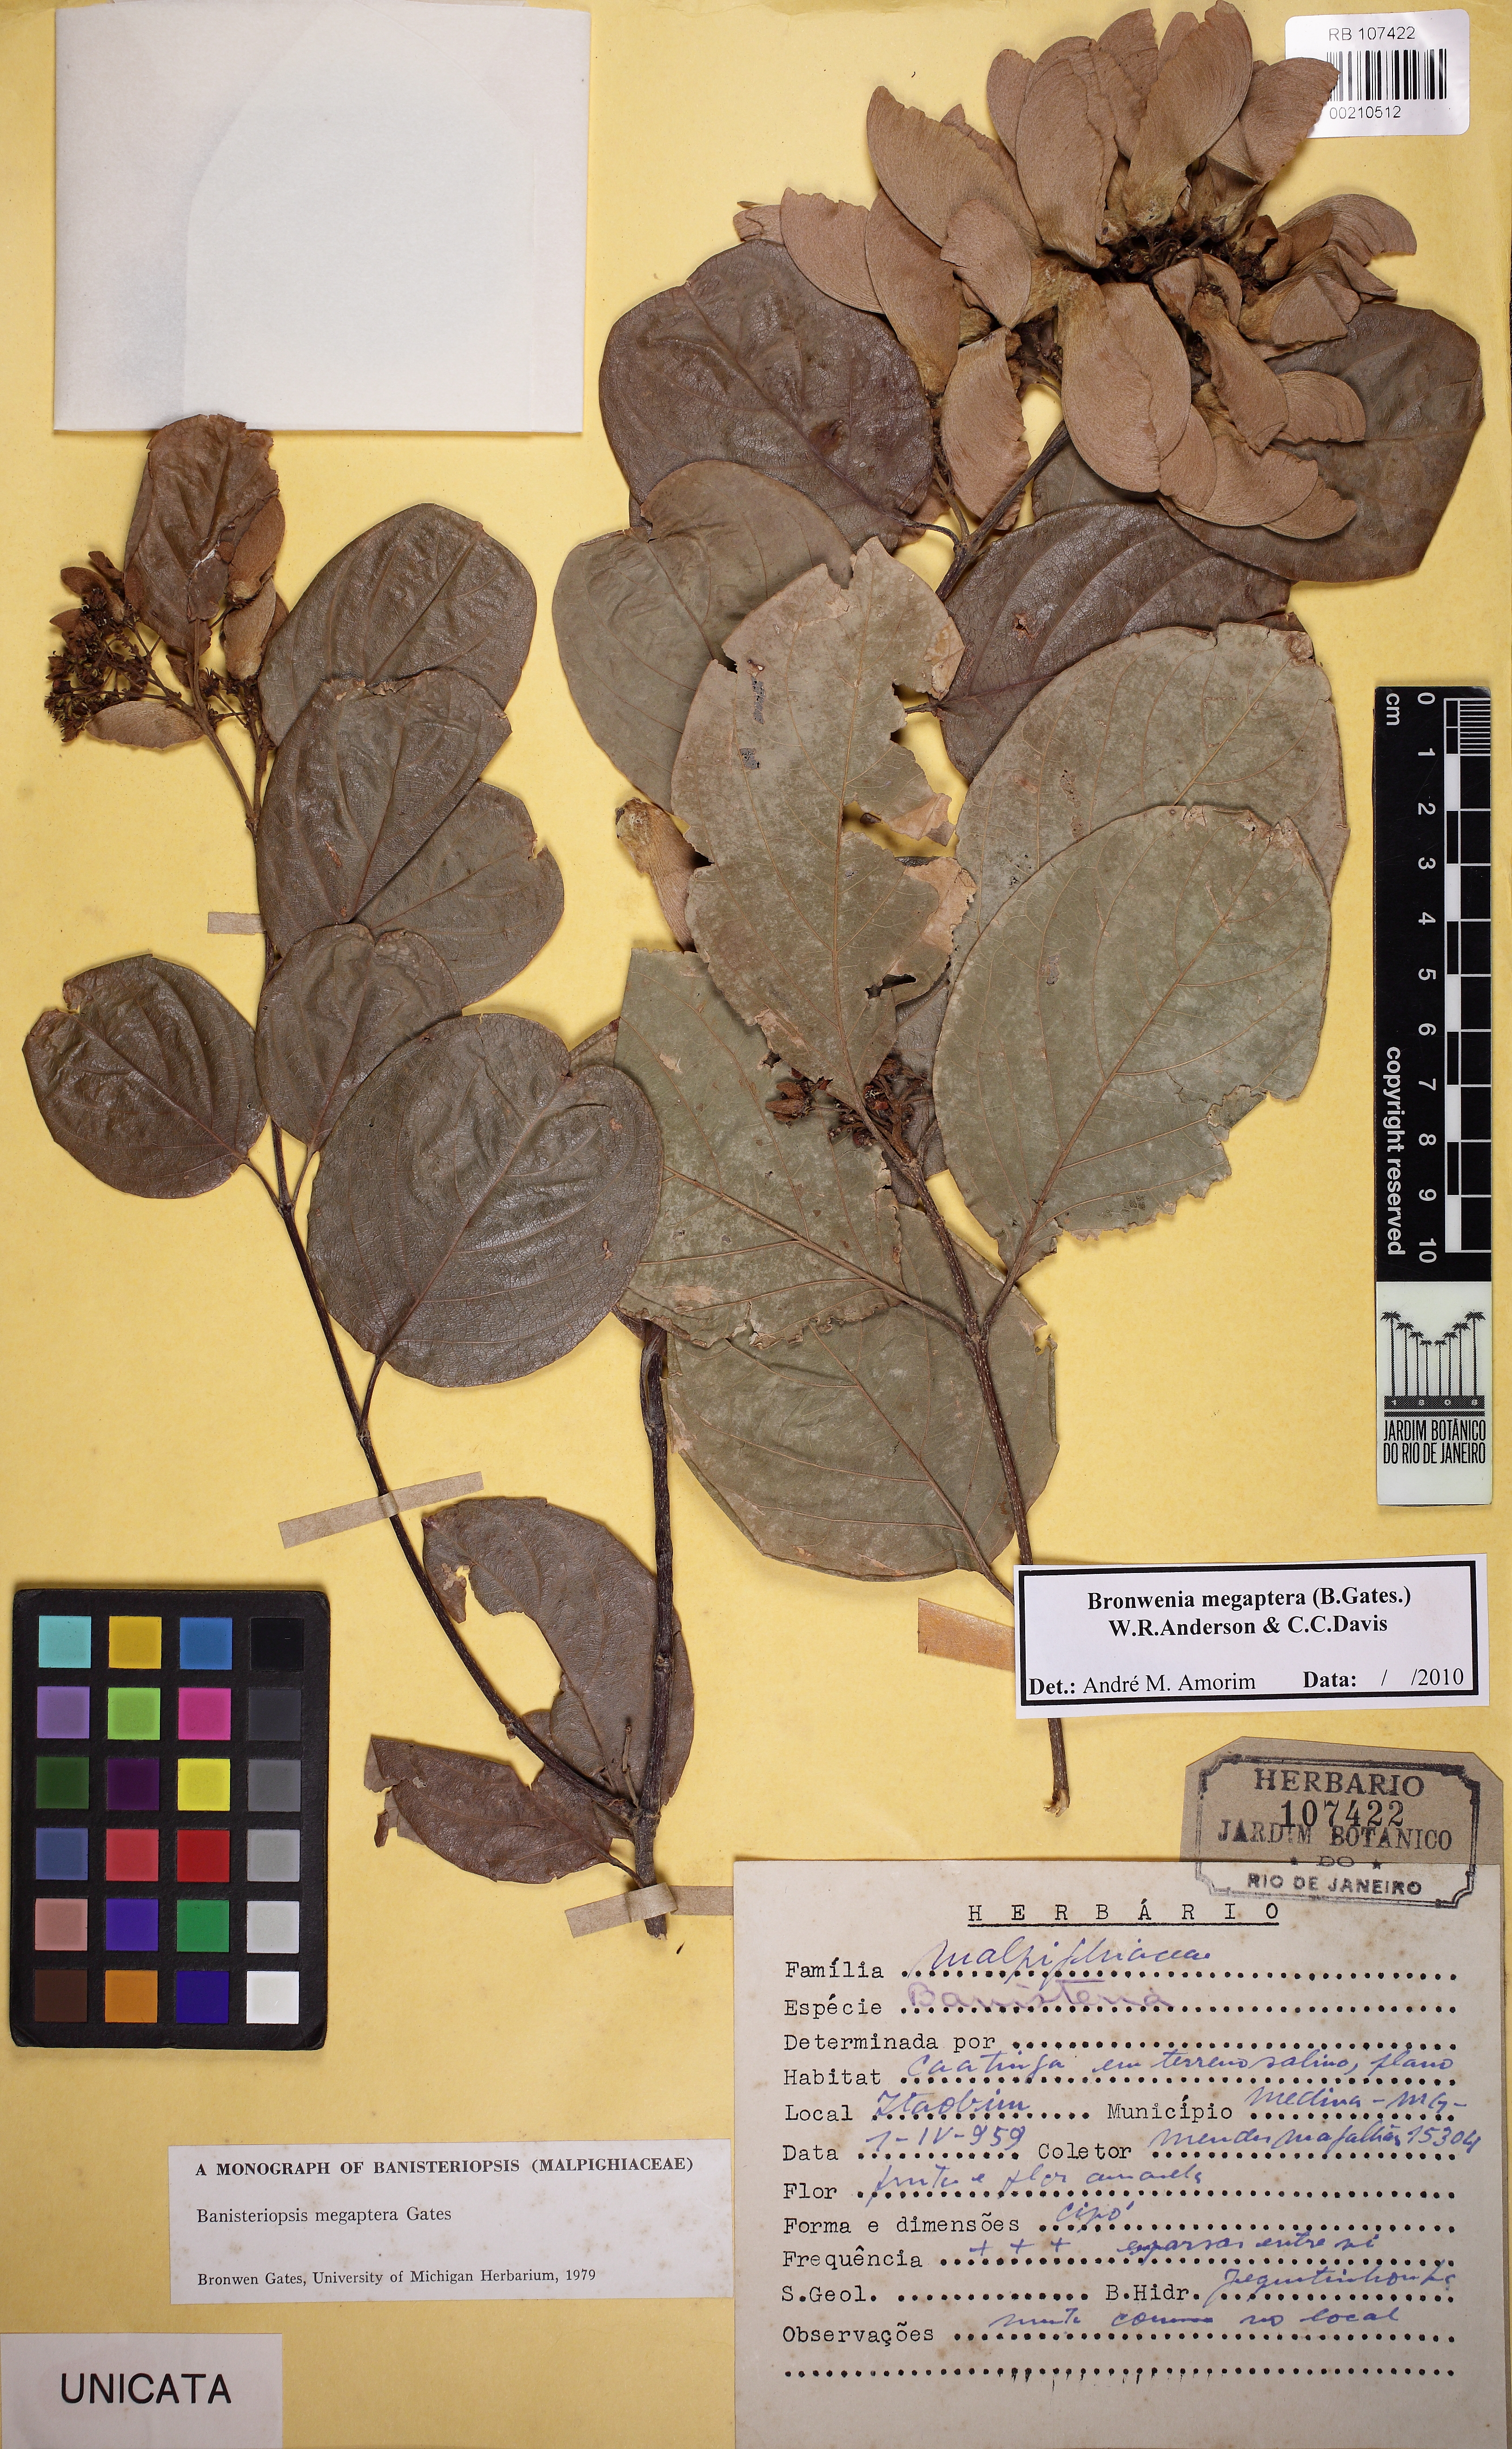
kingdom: Plantae
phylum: Tracheophyta
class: Magnoliopsida
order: Malpighiales
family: Malpighiaceae
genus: Bronwenia
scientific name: Bronwenia megaptera
